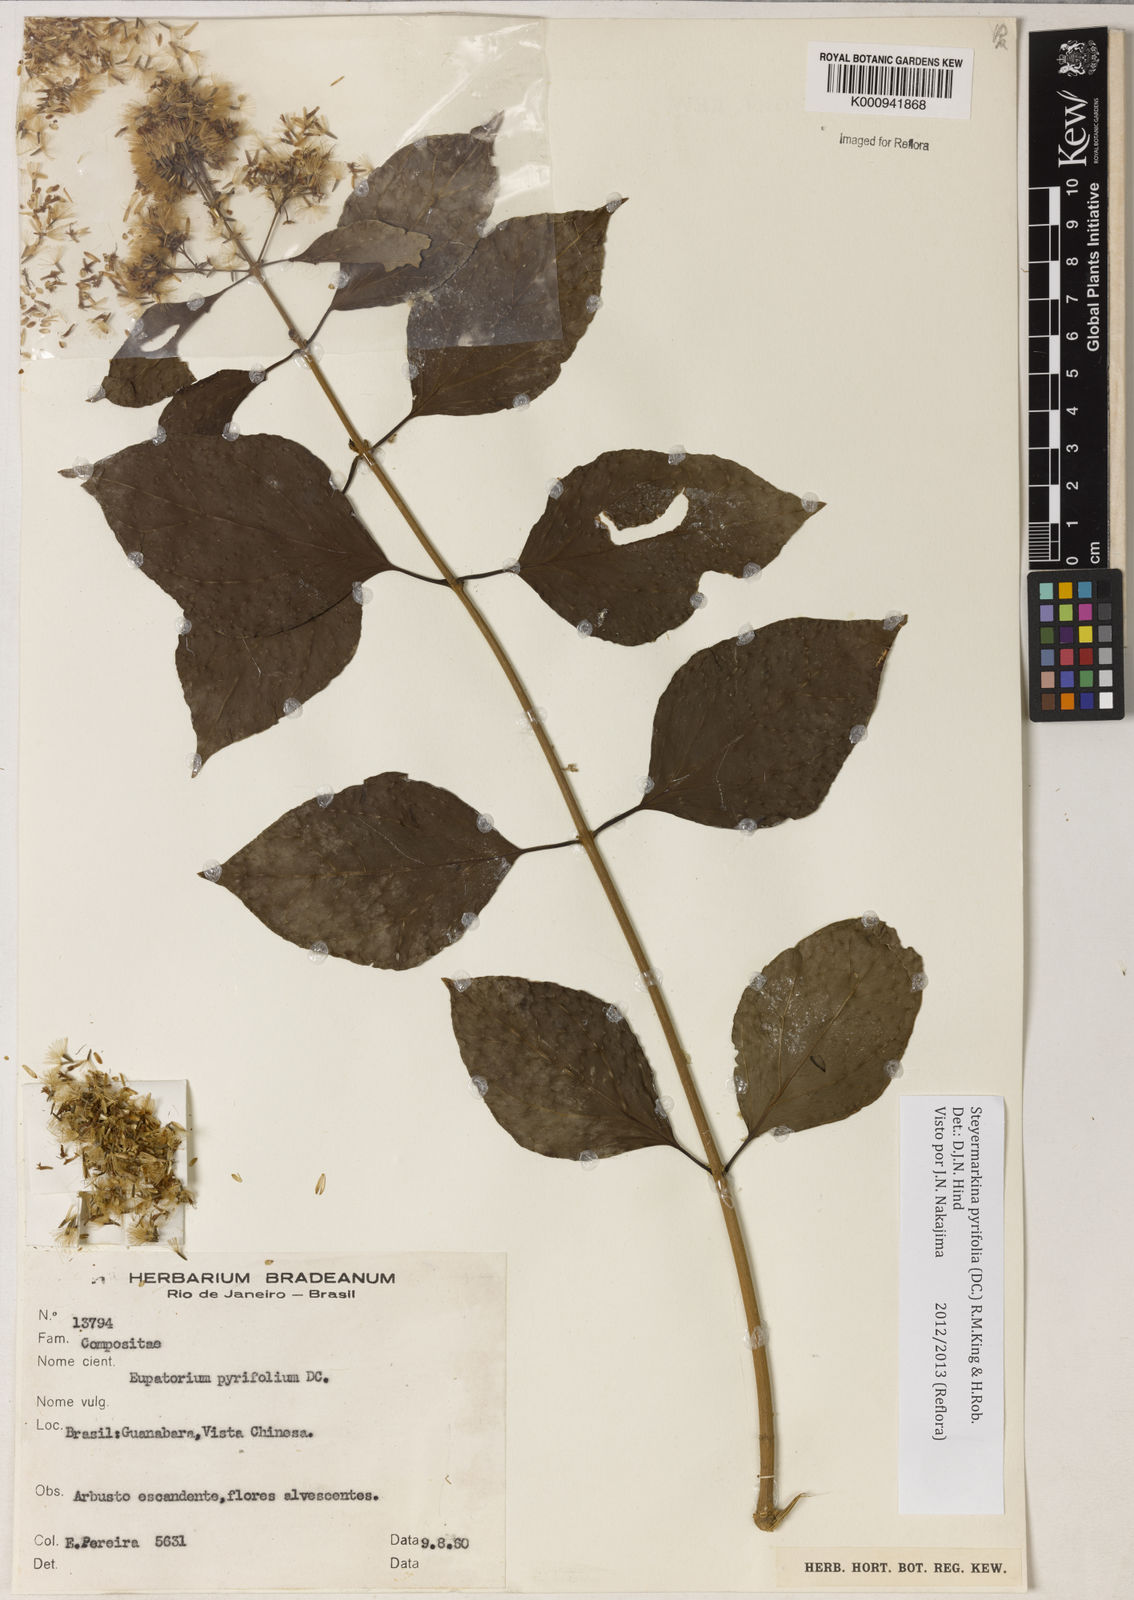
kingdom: Plantae
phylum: Tracheophyta
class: Magnoliopsida
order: Asterales
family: Asteraceae
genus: Steyermarkina
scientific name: Steyermarkina pyrifolia
